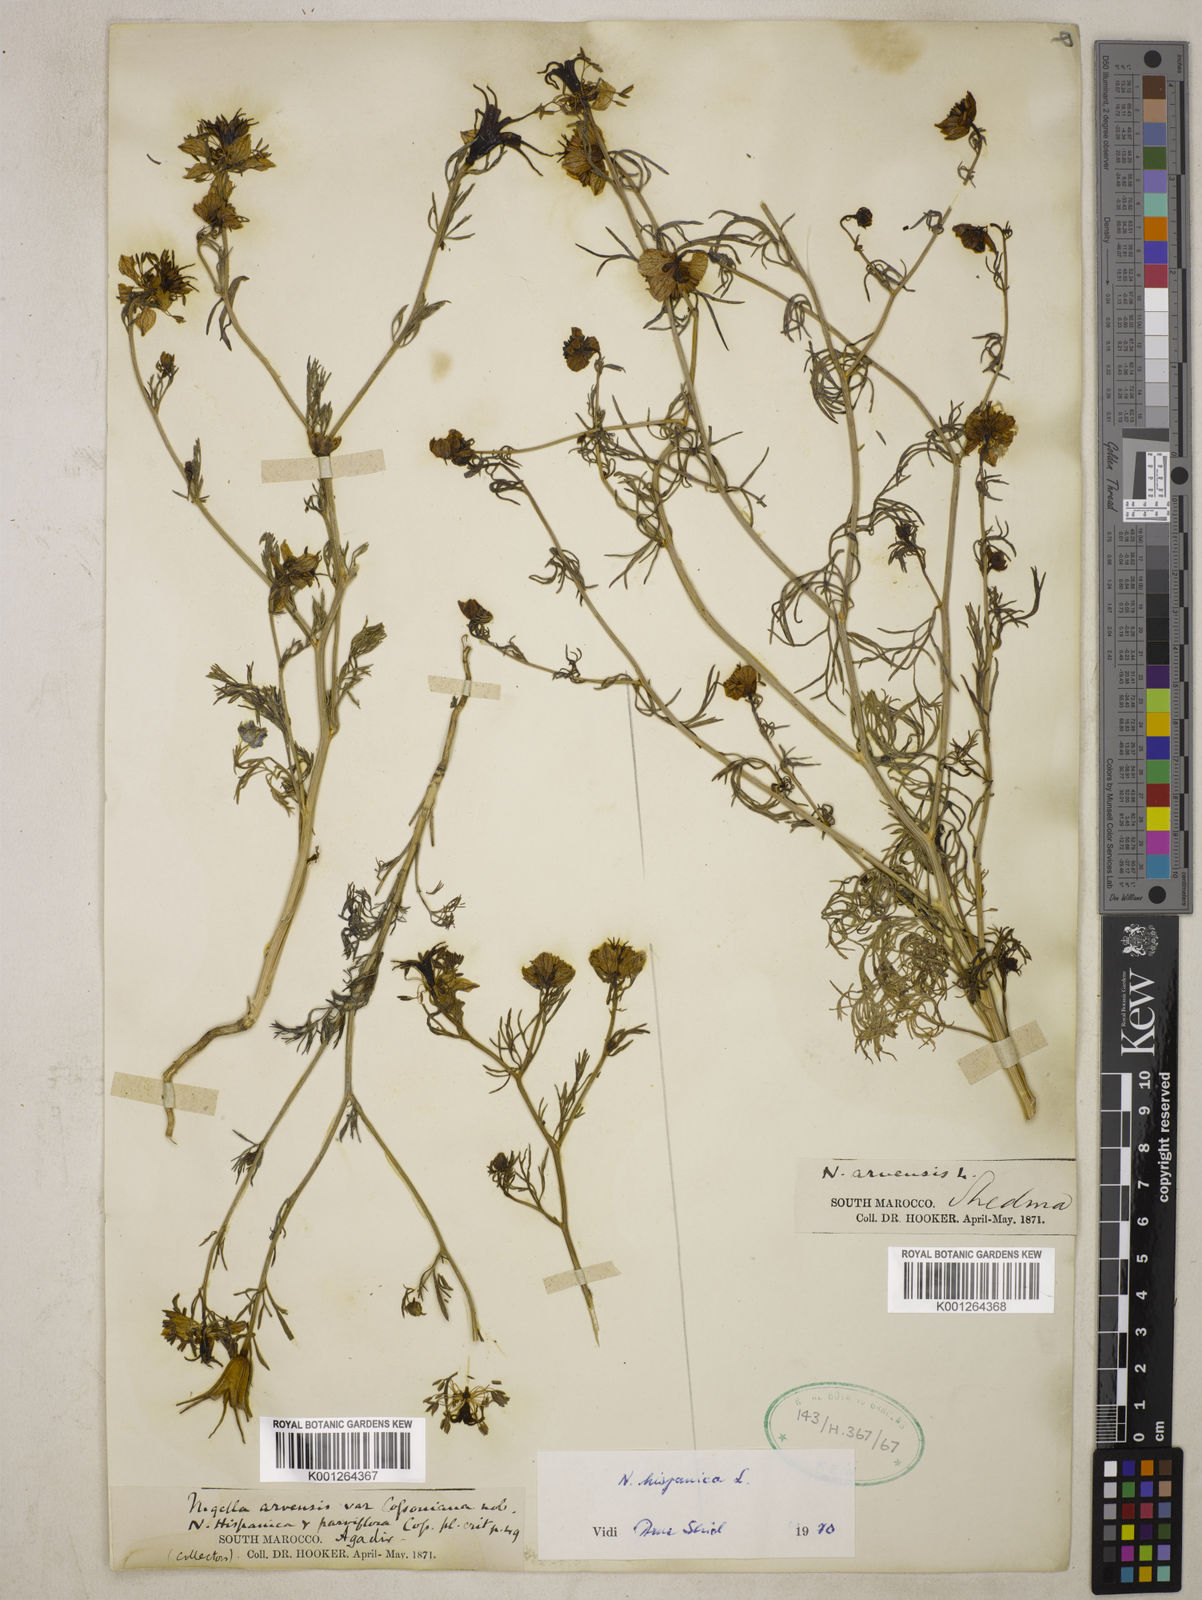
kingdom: Plantae
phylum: Tracheophyta
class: Magnoliopsida
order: Ranunculales
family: Ranunculaceae
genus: Nigella
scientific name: Nigella hispanica
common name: Fennel-flower
